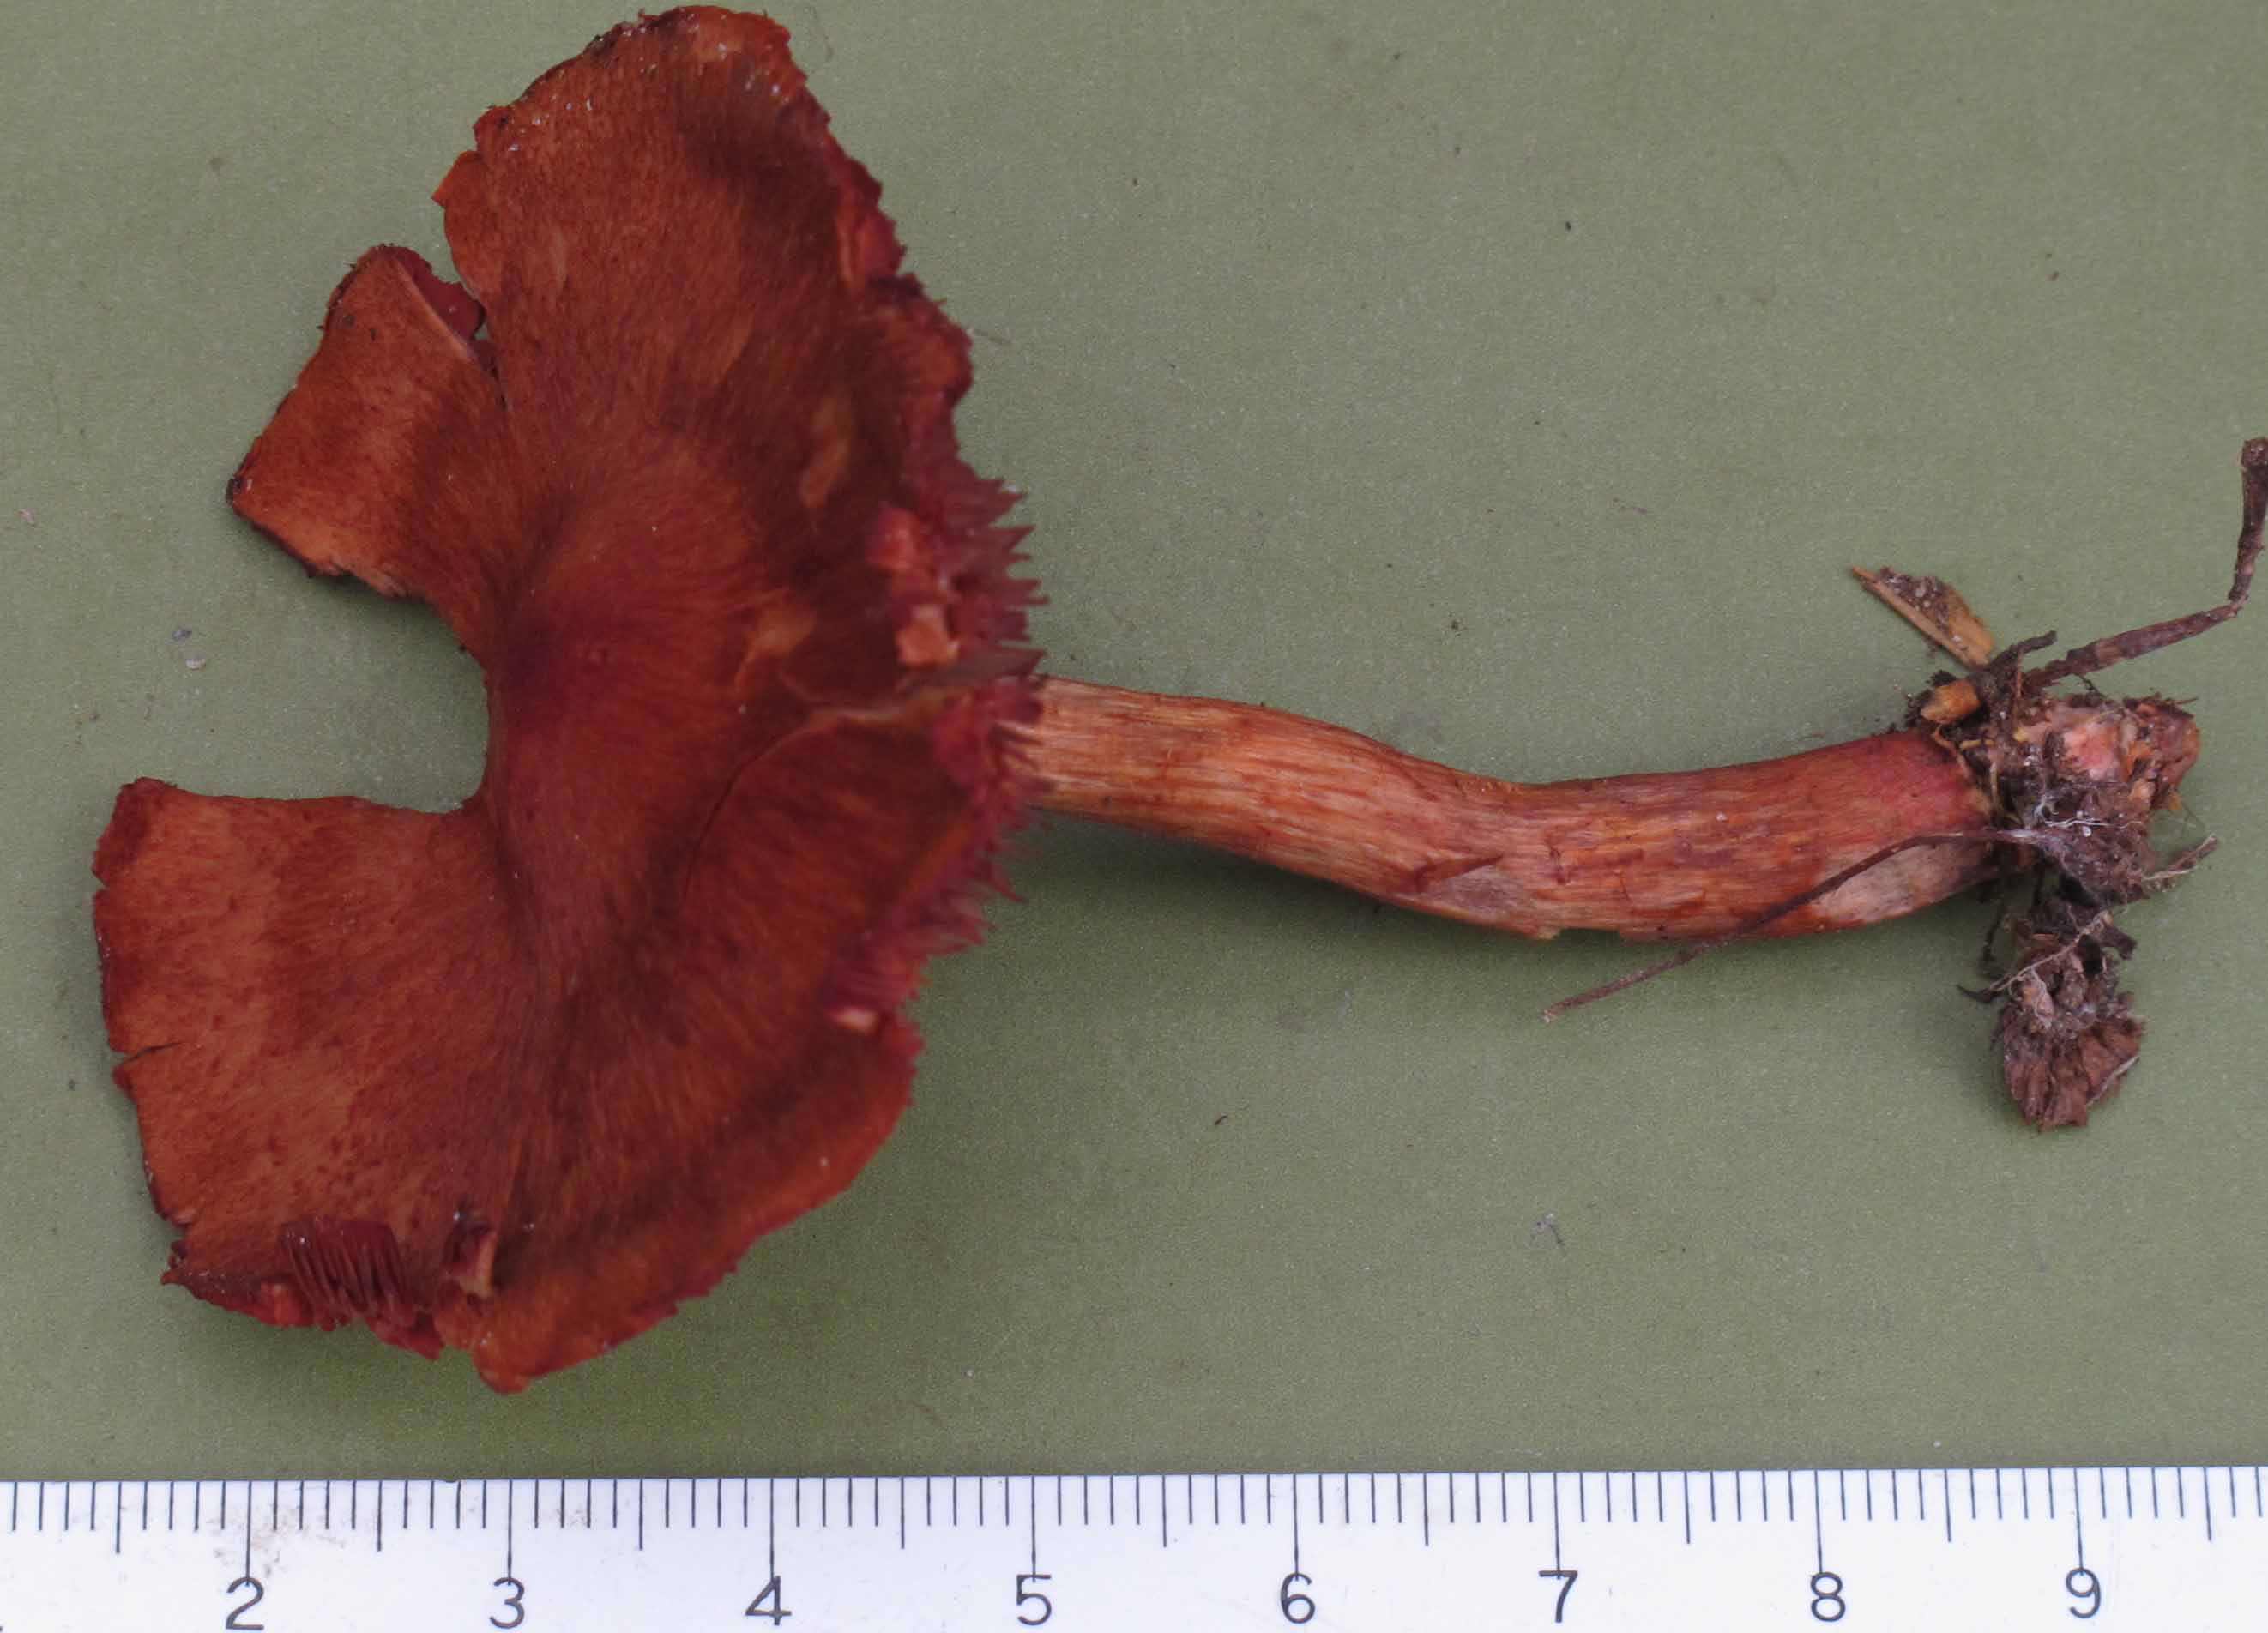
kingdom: Fungi
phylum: Basidiomycota
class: Agaricomycetes
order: Agaricales
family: Cortinariaceae
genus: Cortinarius
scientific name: Cortinarius cinnabarinus
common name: cinnober-slørhat
